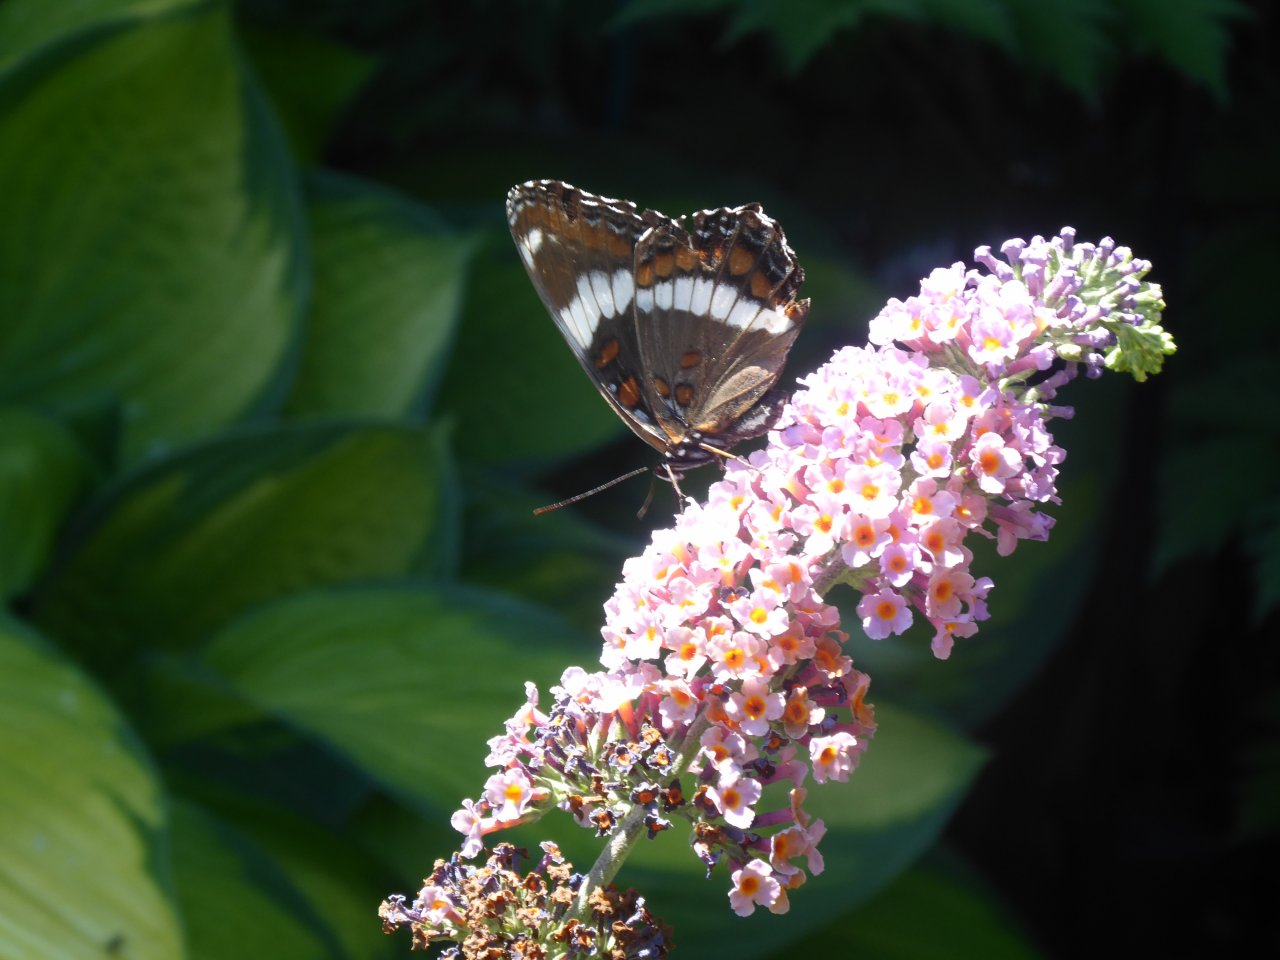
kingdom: Animalia
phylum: Arthropoda
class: Insecta
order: Lepidoptera
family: Nymphalidae
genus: Limenitis
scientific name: Limenitis arthemis
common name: Red-spotted Admiral
